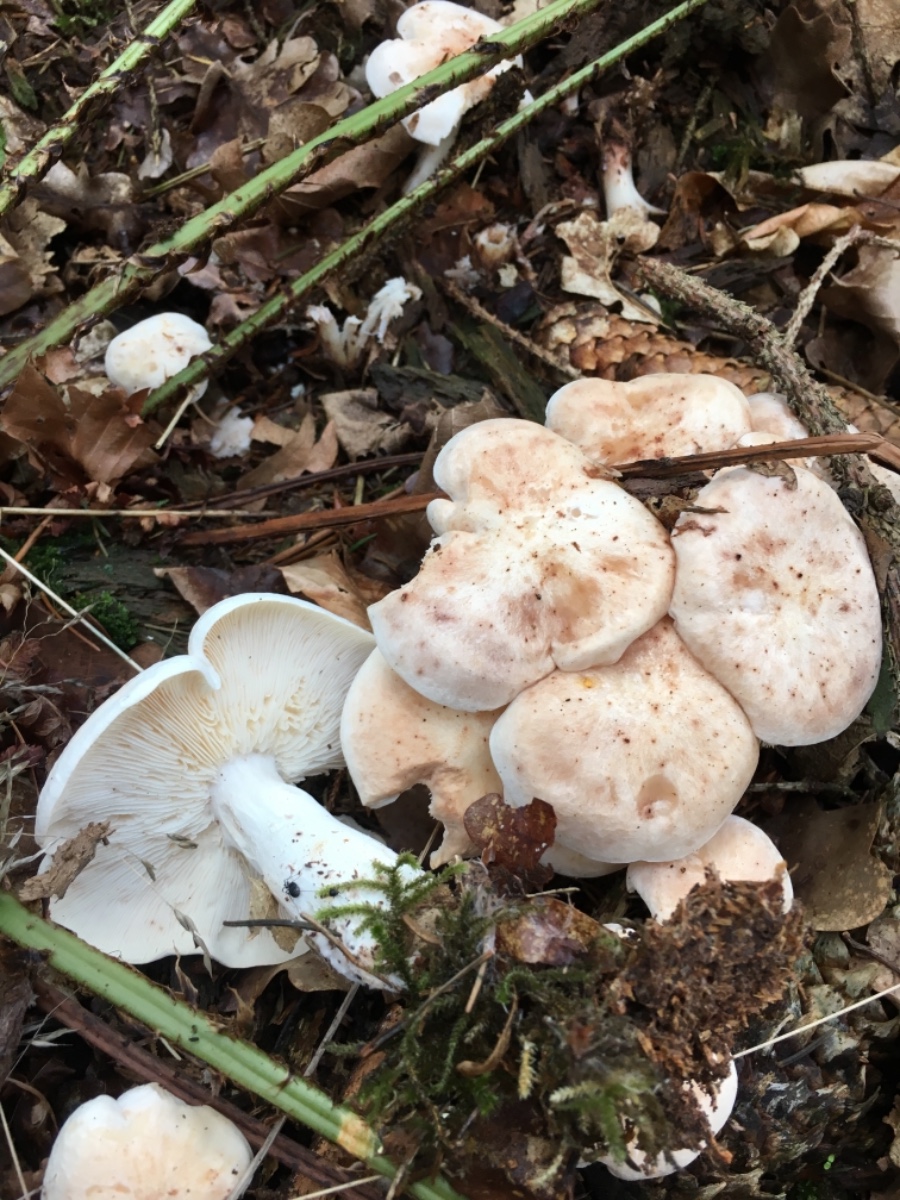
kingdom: Fungi
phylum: Basidiomycota
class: Agaricomycetes
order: Agaricales
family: Omphalotaceae
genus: Rhodocollybia
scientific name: Rhodocollybia maculata
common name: plettet fladhat
